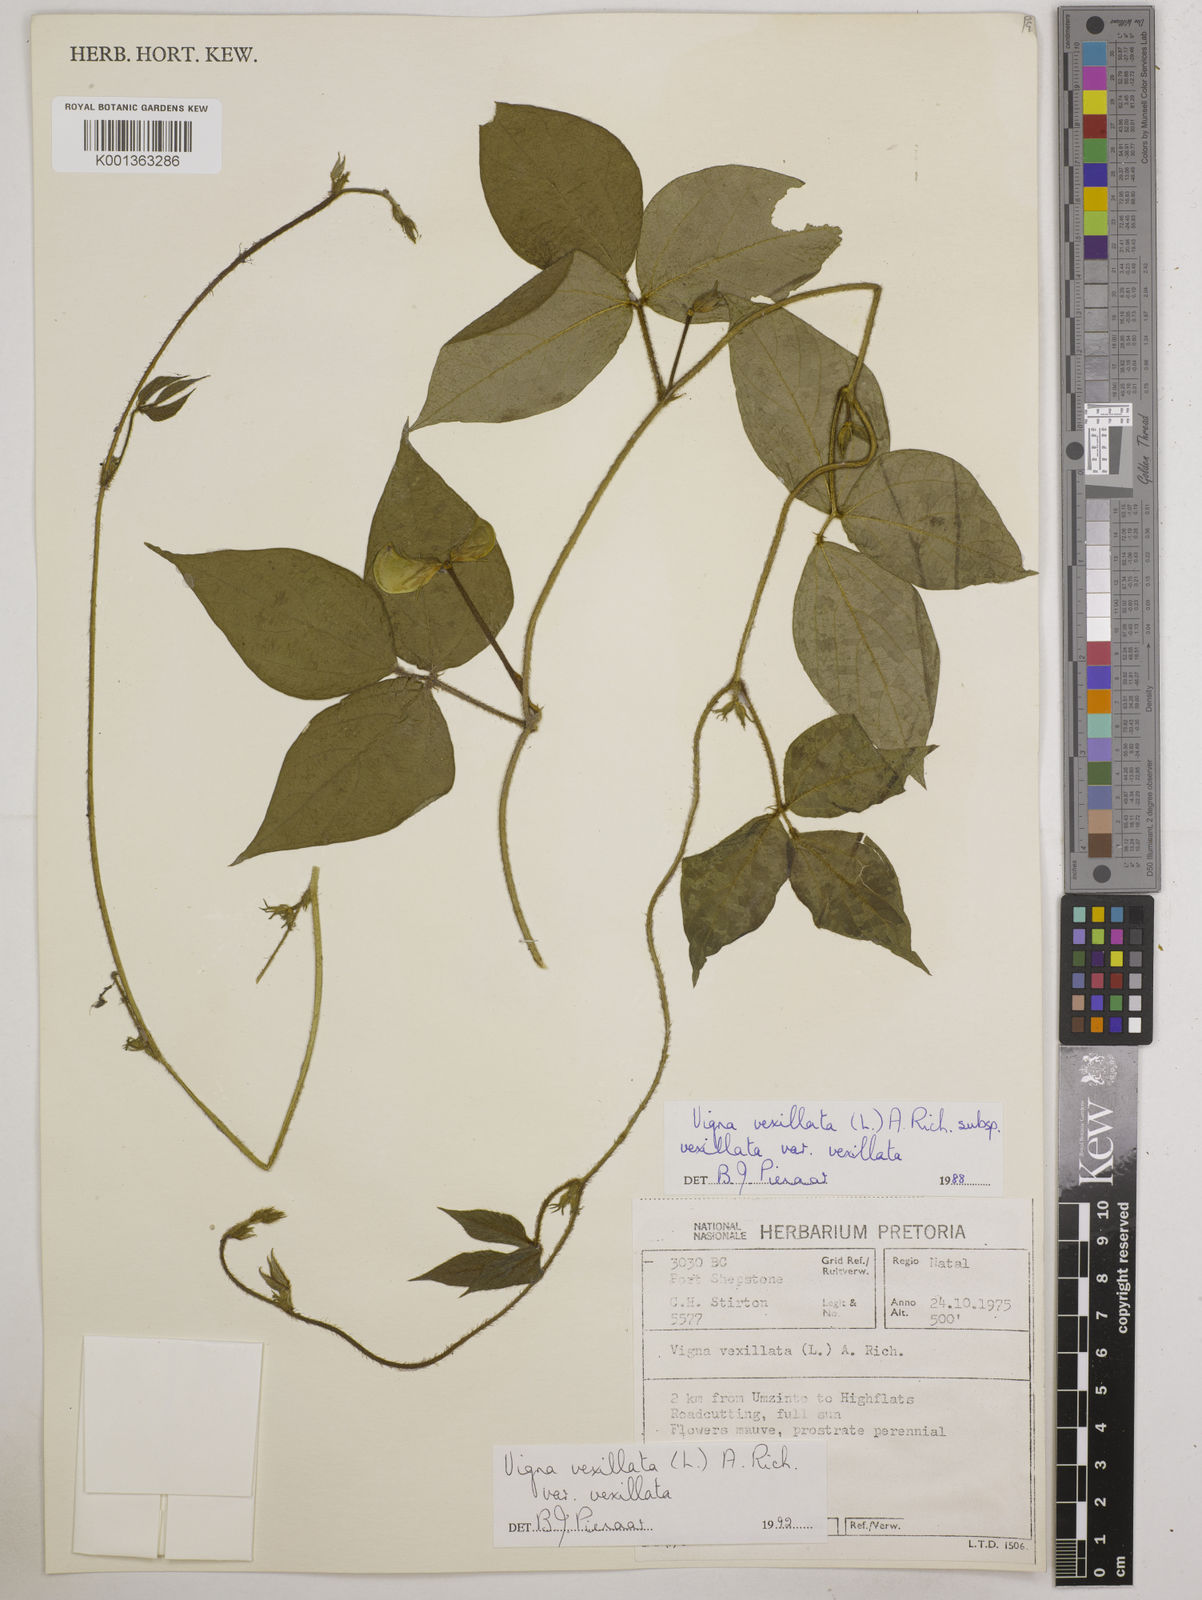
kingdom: Plantae
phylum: Tracheophyta
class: Magnoliopsida
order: Fabales
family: Fabaceae
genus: Vigna
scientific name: Vigna
